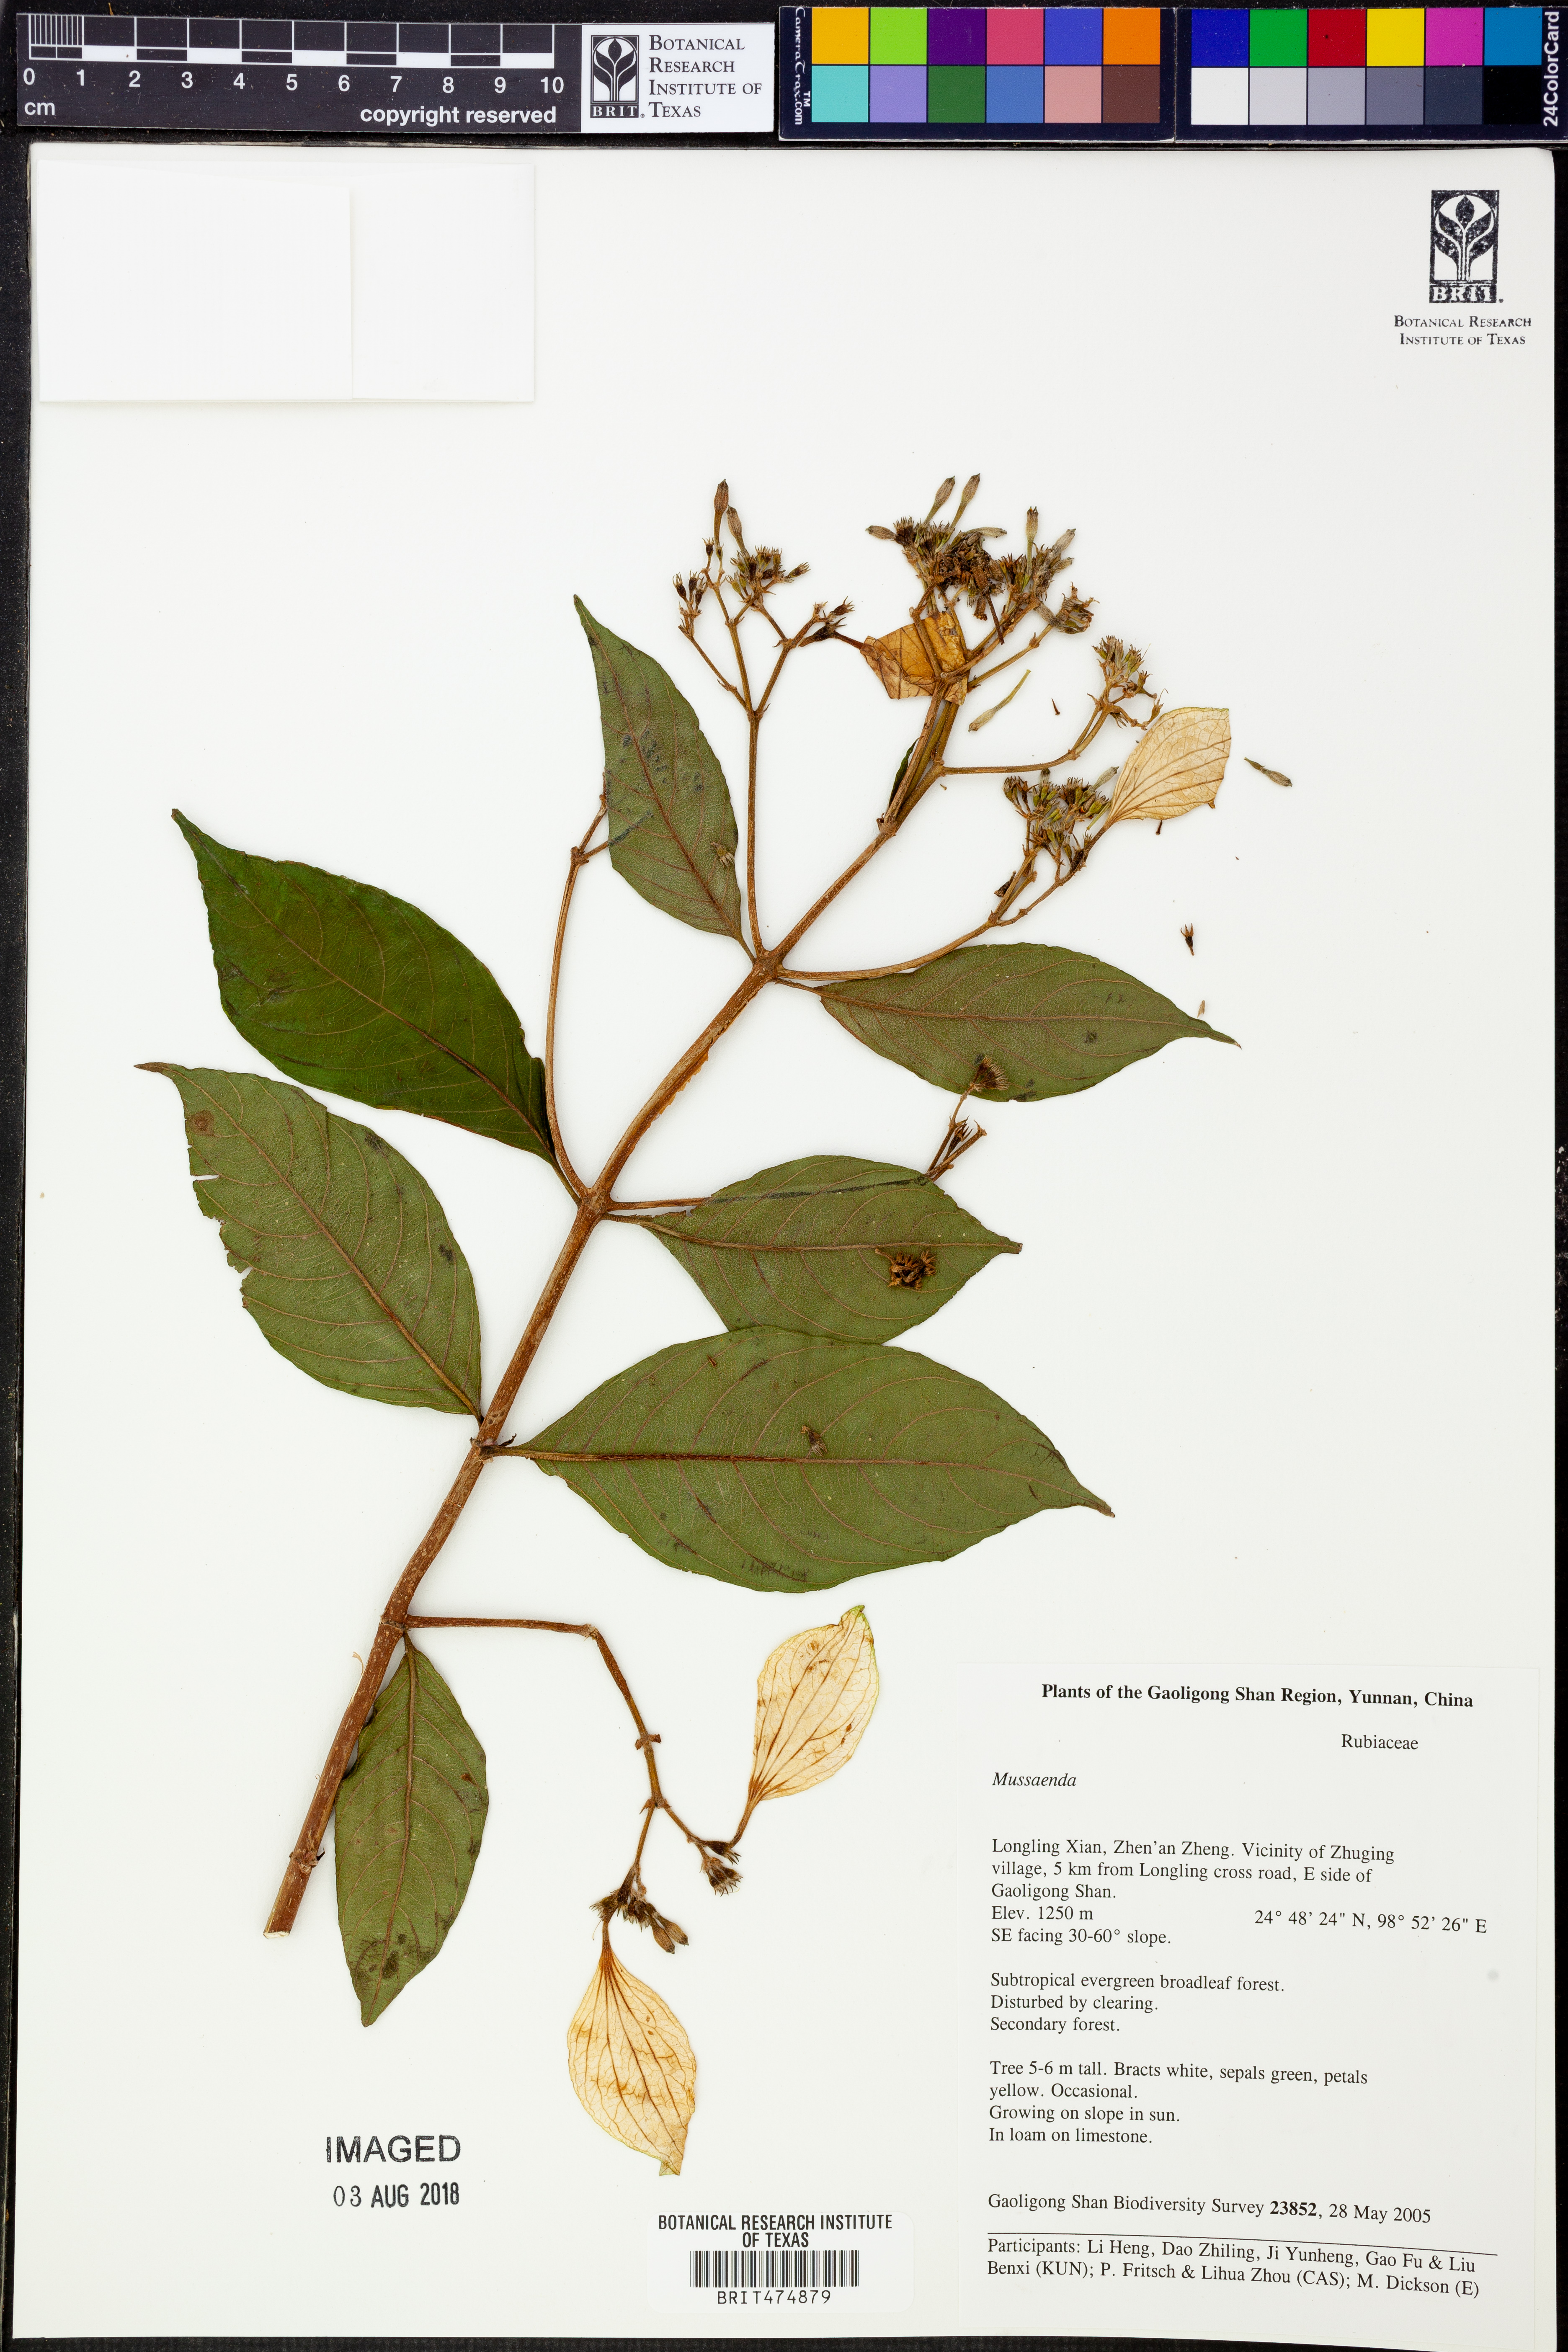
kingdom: Plantae
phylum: Tracheophyta
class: Magnoliopsida
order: Caryophyllales
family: Polygonaceae
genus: Polygonum
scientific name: Polygonum
